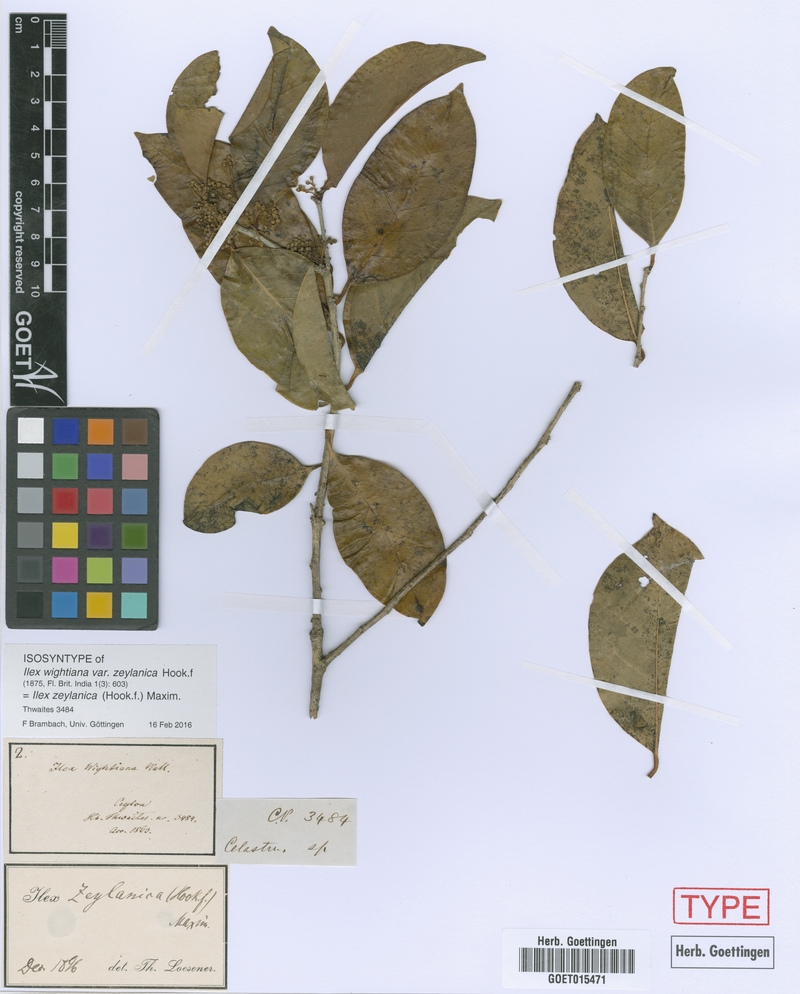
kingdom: Plantae
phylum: Tracheophyta
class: Magnoliopsida
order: Aquifoliales
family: Aquifoliaceae
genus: Ilex
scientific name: Ilex zeylanica
